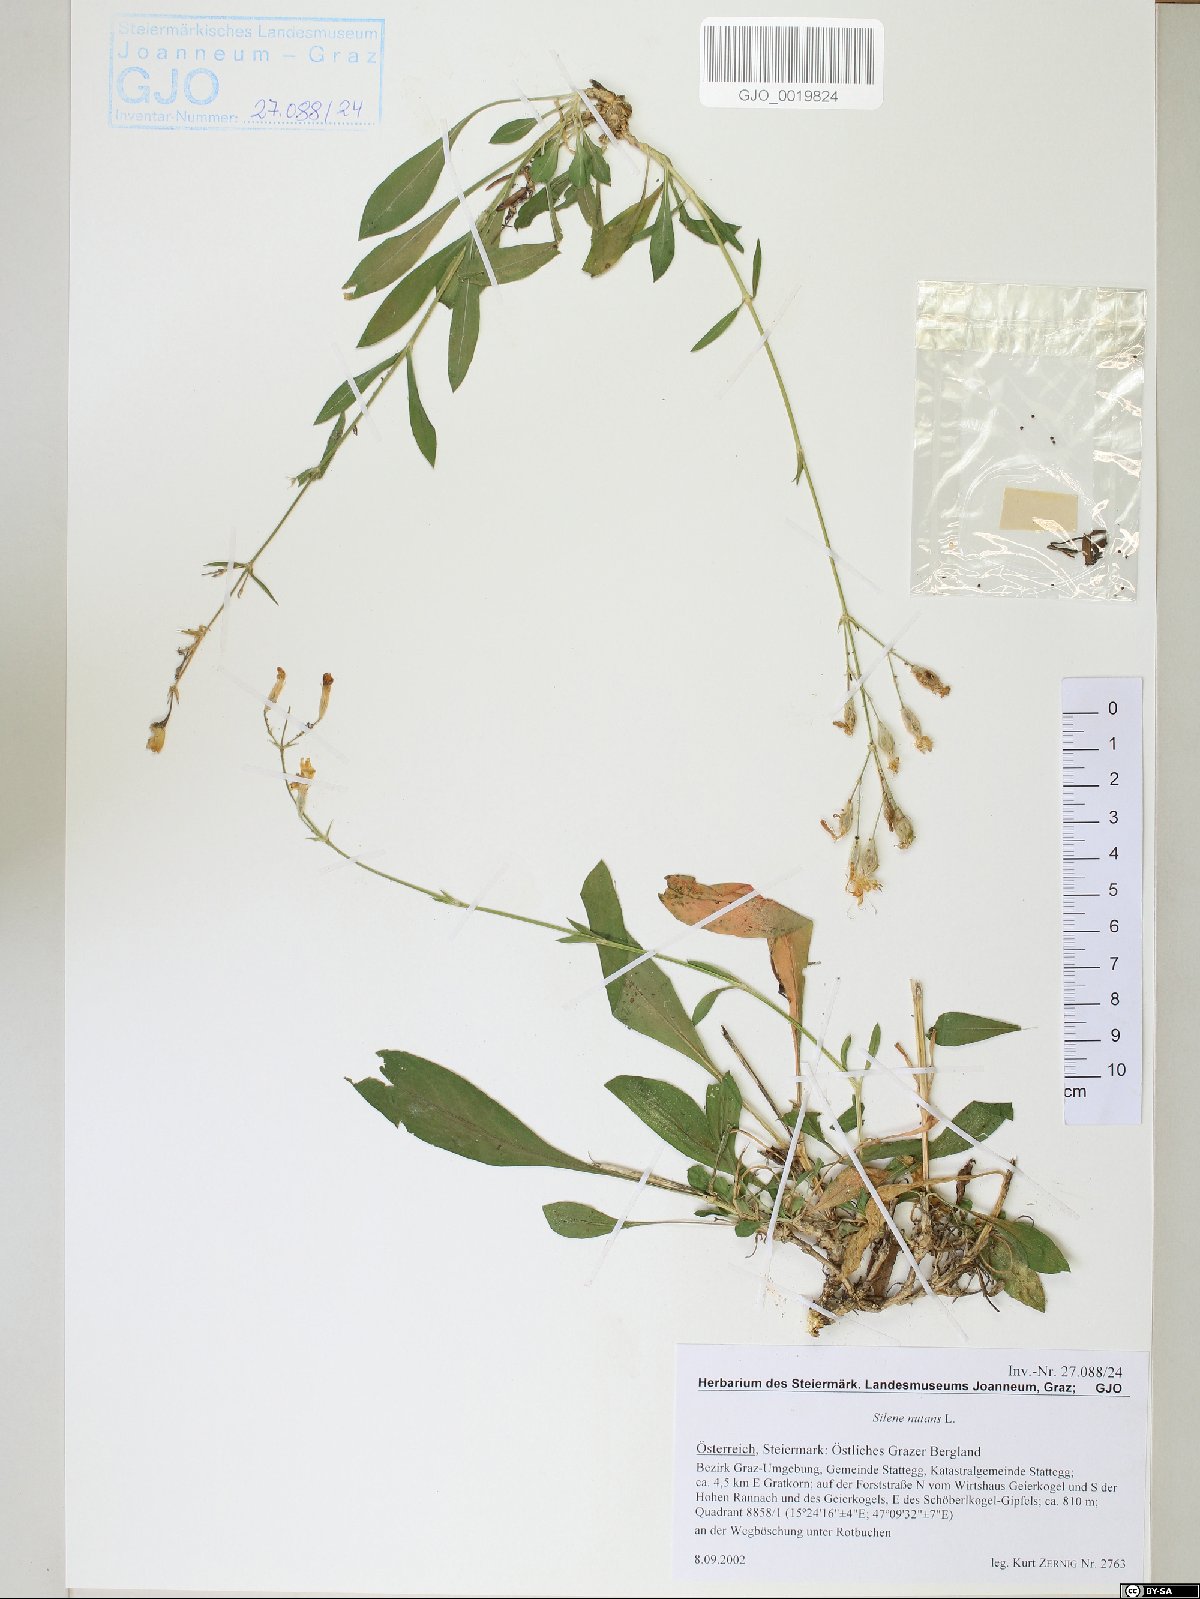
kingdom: Plantae
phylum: Tracheophyta
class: Magnoliopsida
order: Caryophyllales
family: Caryophyllaceae
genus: Silene
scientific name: Silene nutans
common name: Nottingham catchfly
